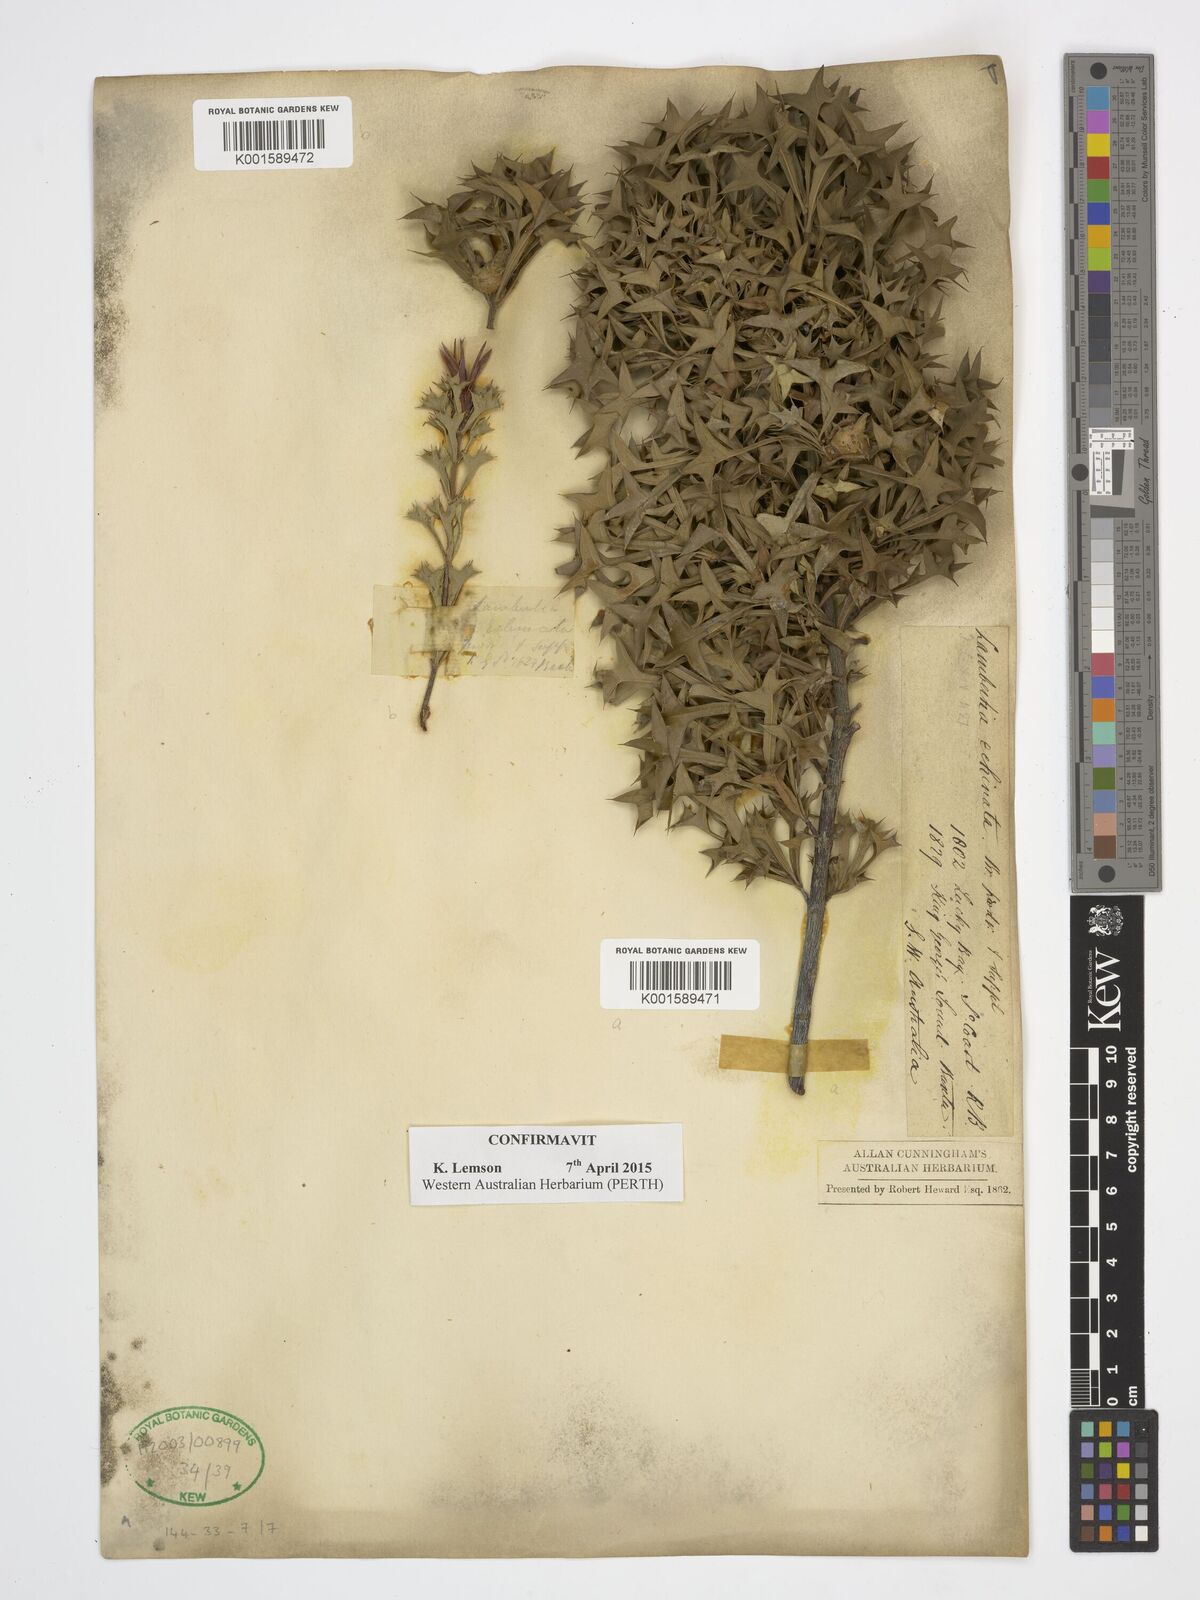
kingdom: Plantae
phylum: Tracheophyta
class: Magnoliopsida
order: Proteales
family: Proteaceae
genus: Lambertia
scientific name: Lambertia echinata
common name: Prickly honeysuckle
